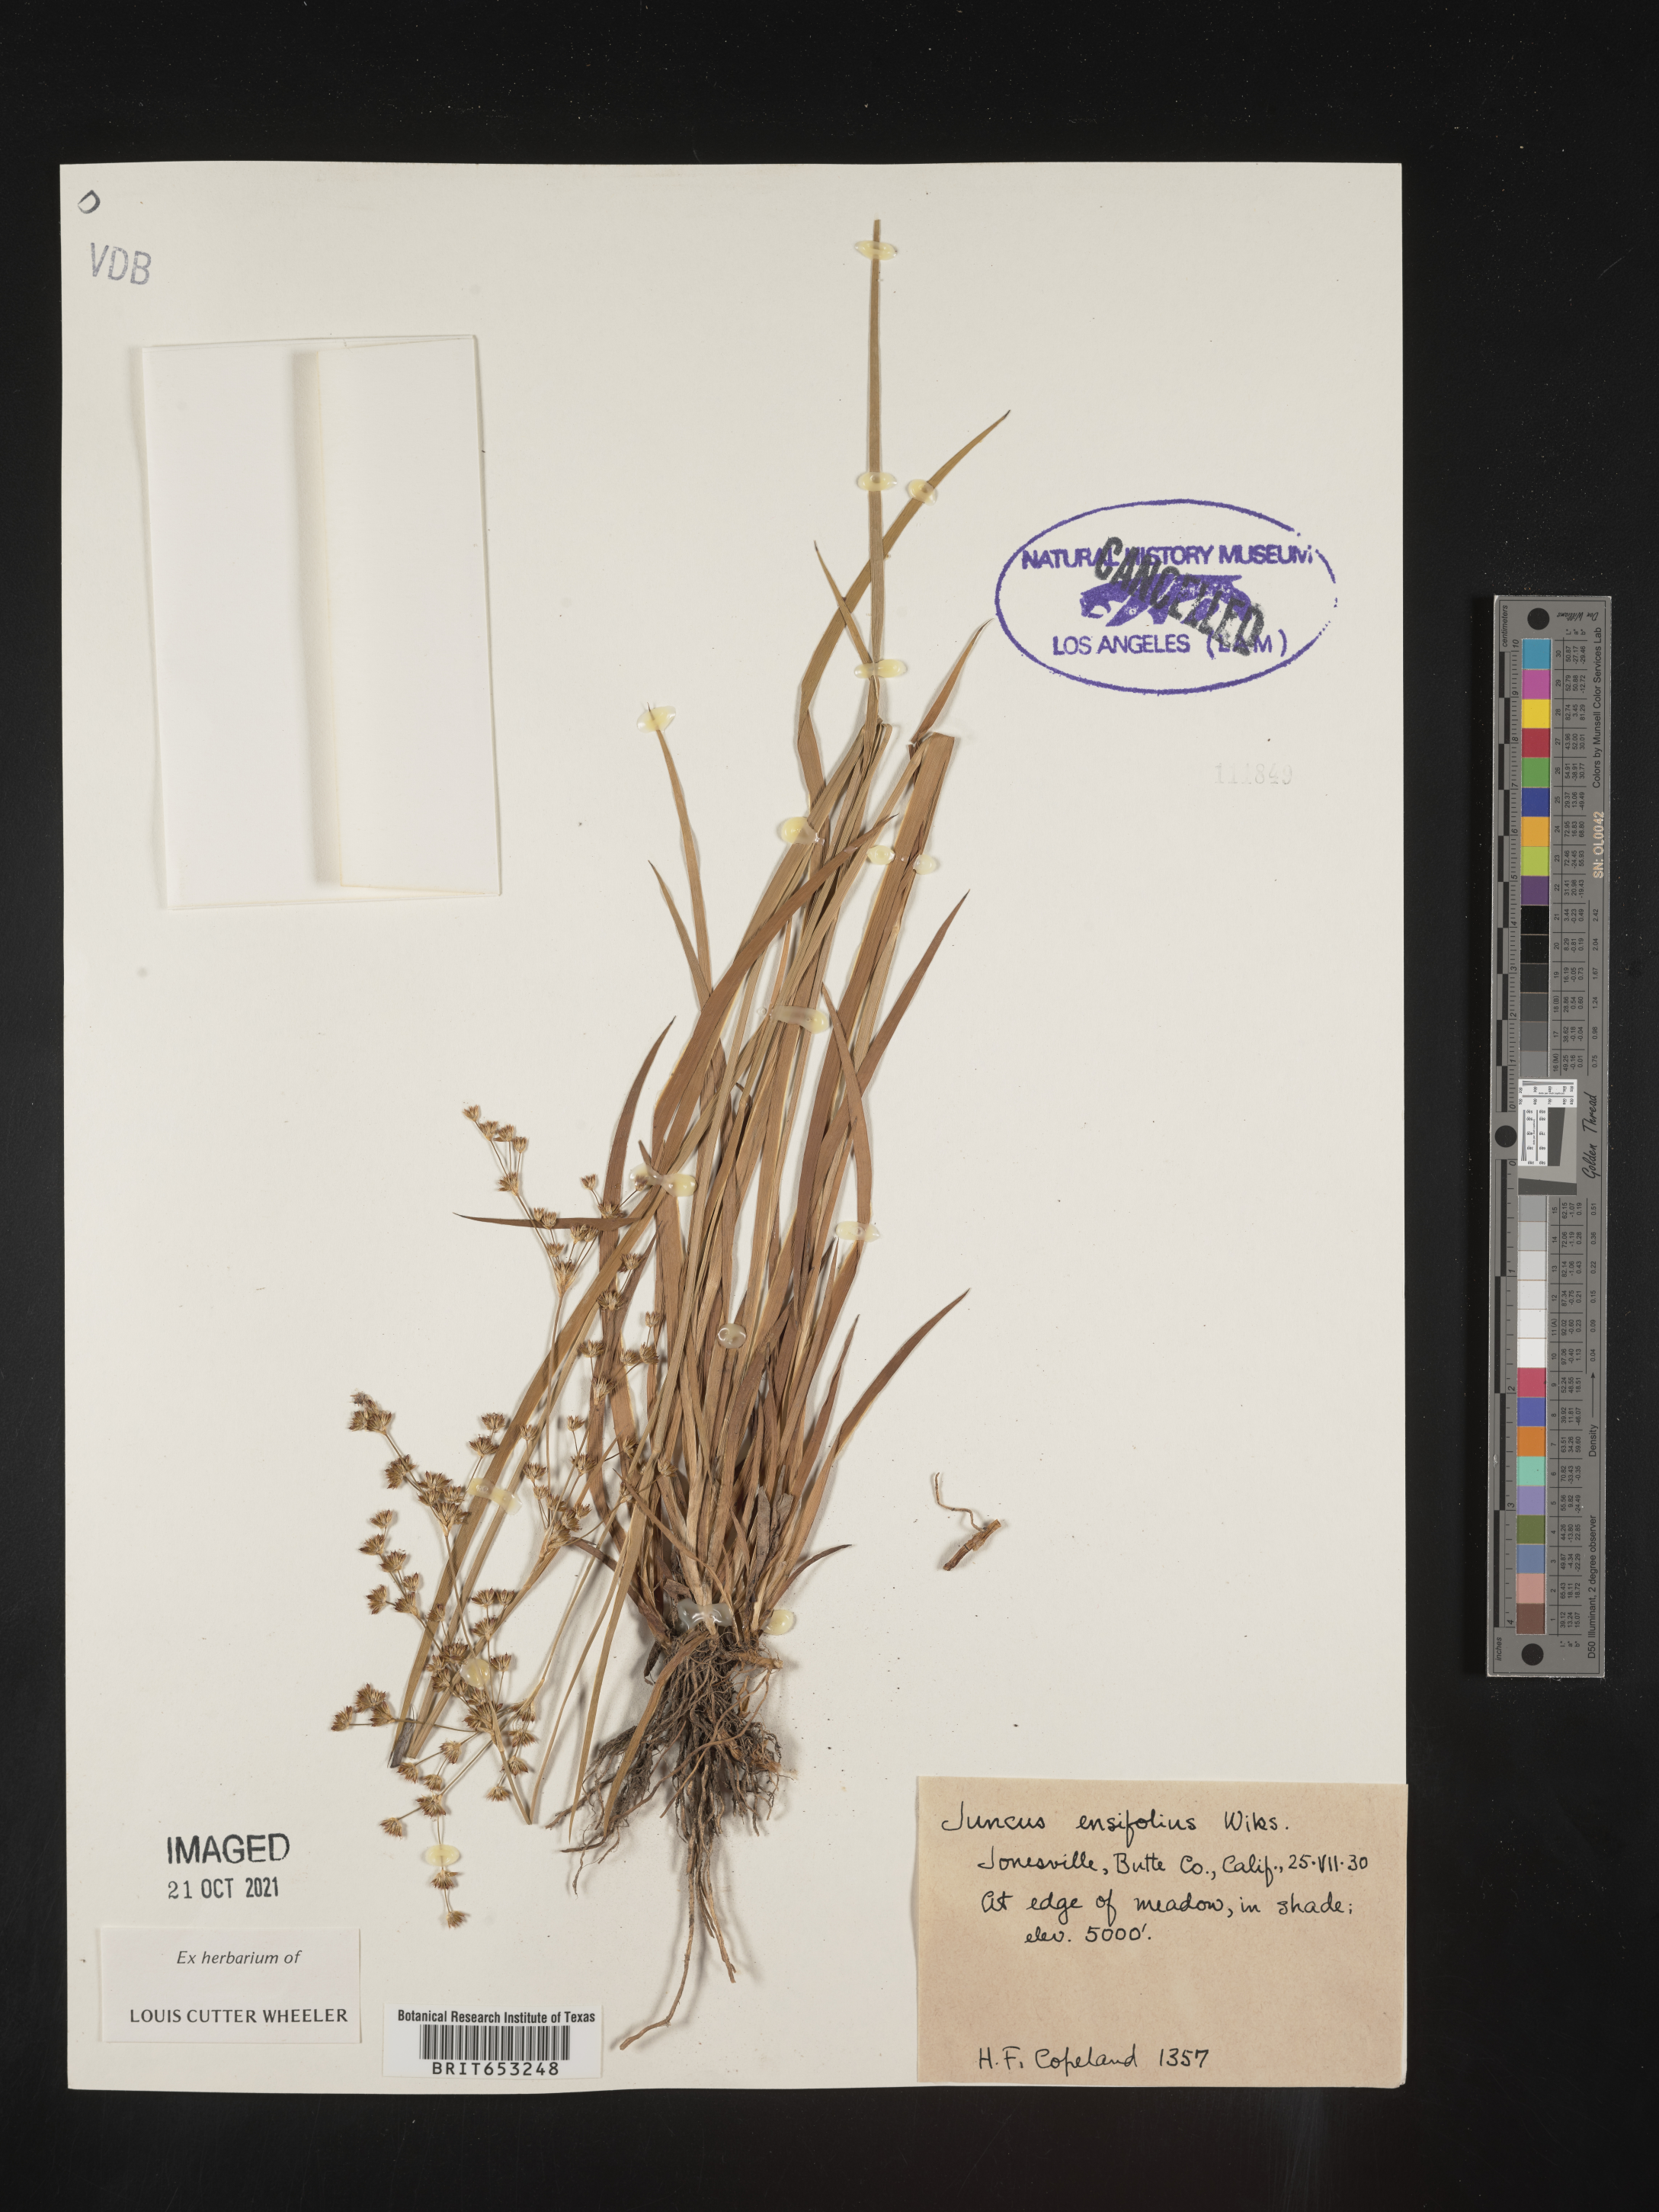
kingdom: Plantae
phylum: Tracheophyta
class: Liliopsida
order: Poales
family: Juncaceae
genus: Juncus
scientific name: Juncus ensifolius
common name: Sword-leaved rush
